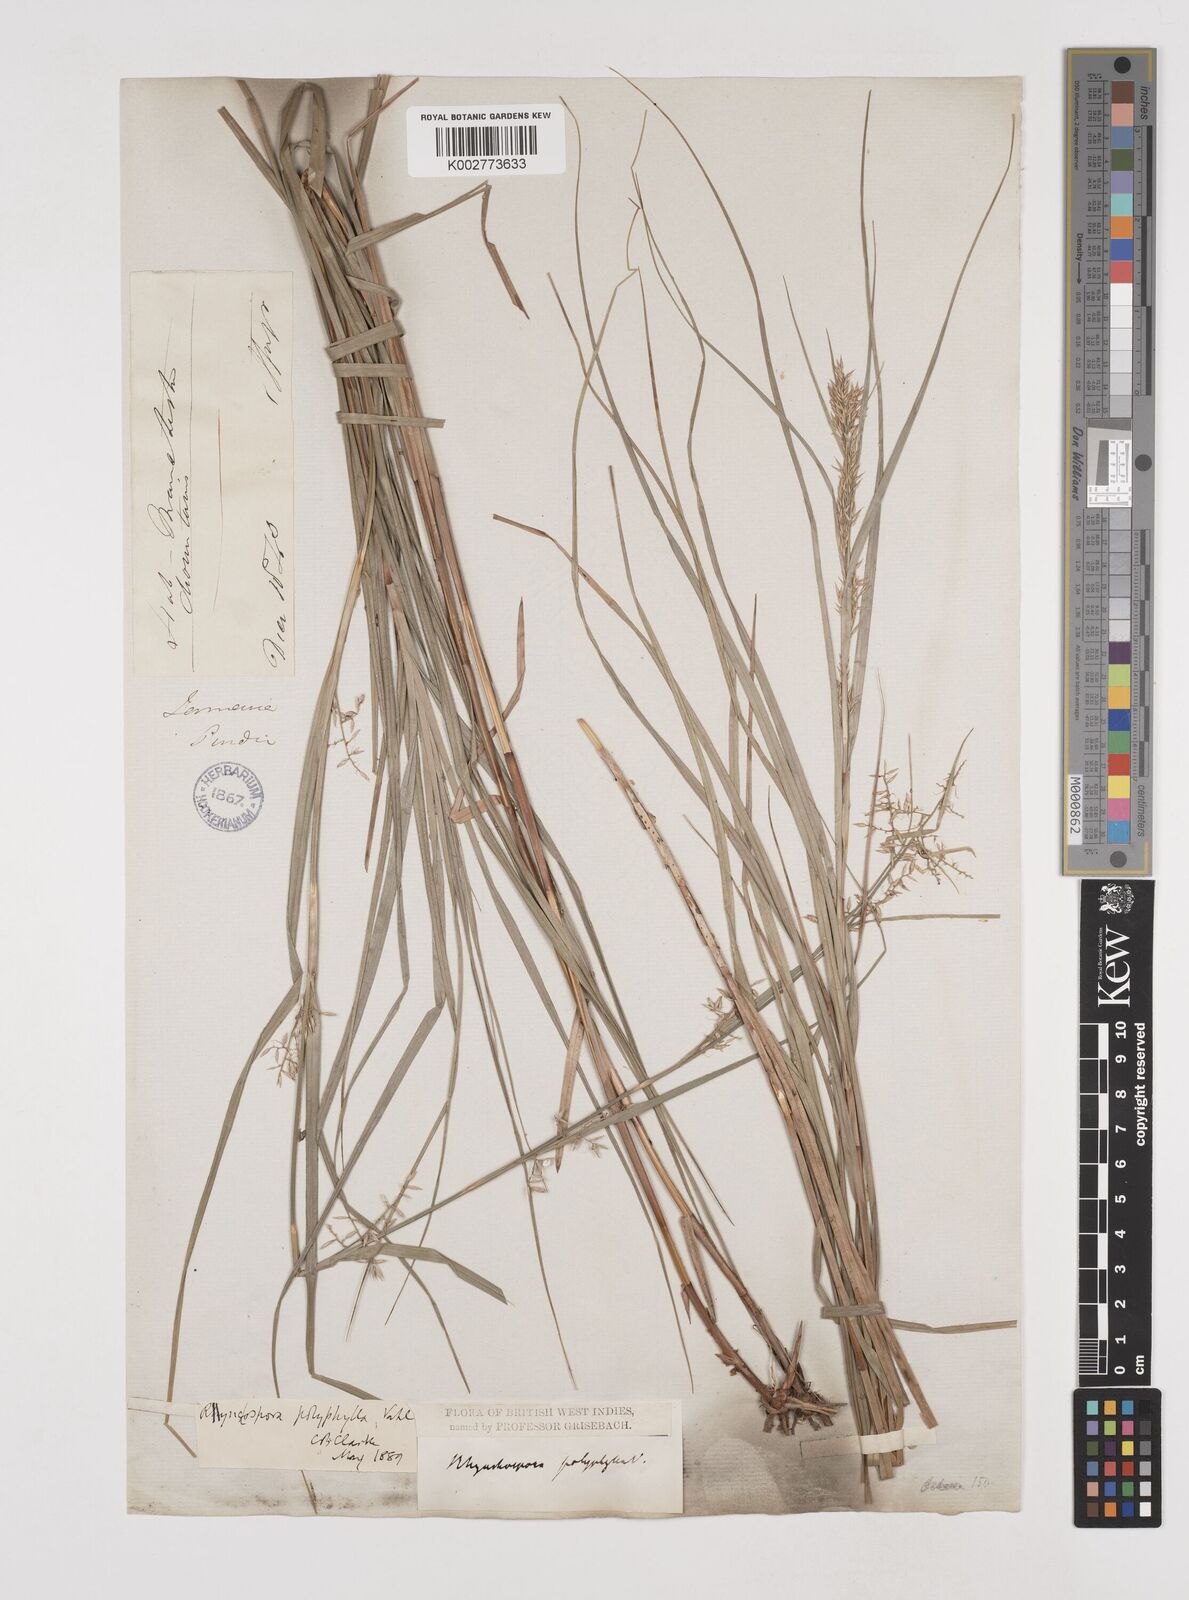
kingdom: Plantae
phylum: Tracheophyta
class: Liliopsida
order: Poales
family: Cyperaceae
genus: Rhynchospora
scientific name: Rhynchospora polyphylla
